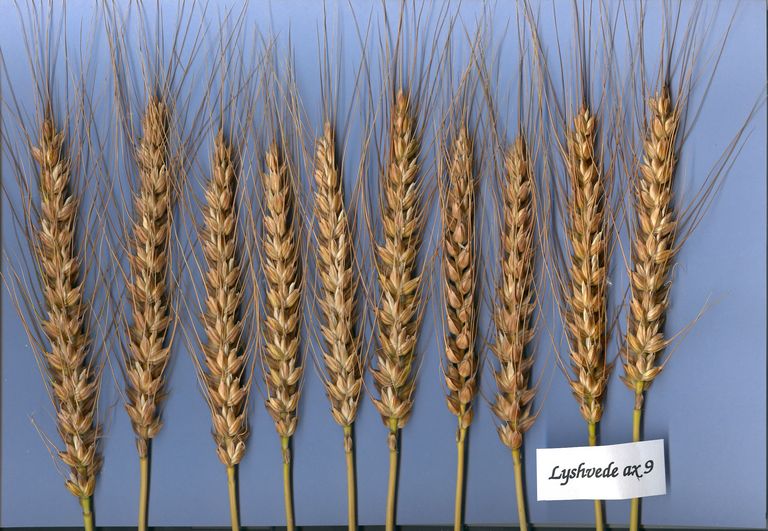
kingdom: Plantae
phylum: Tracheophyta
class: Liliopsida
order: Poales
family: Poaceae
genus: Triticum
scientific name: Triticum aestivum
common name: Common wheat
